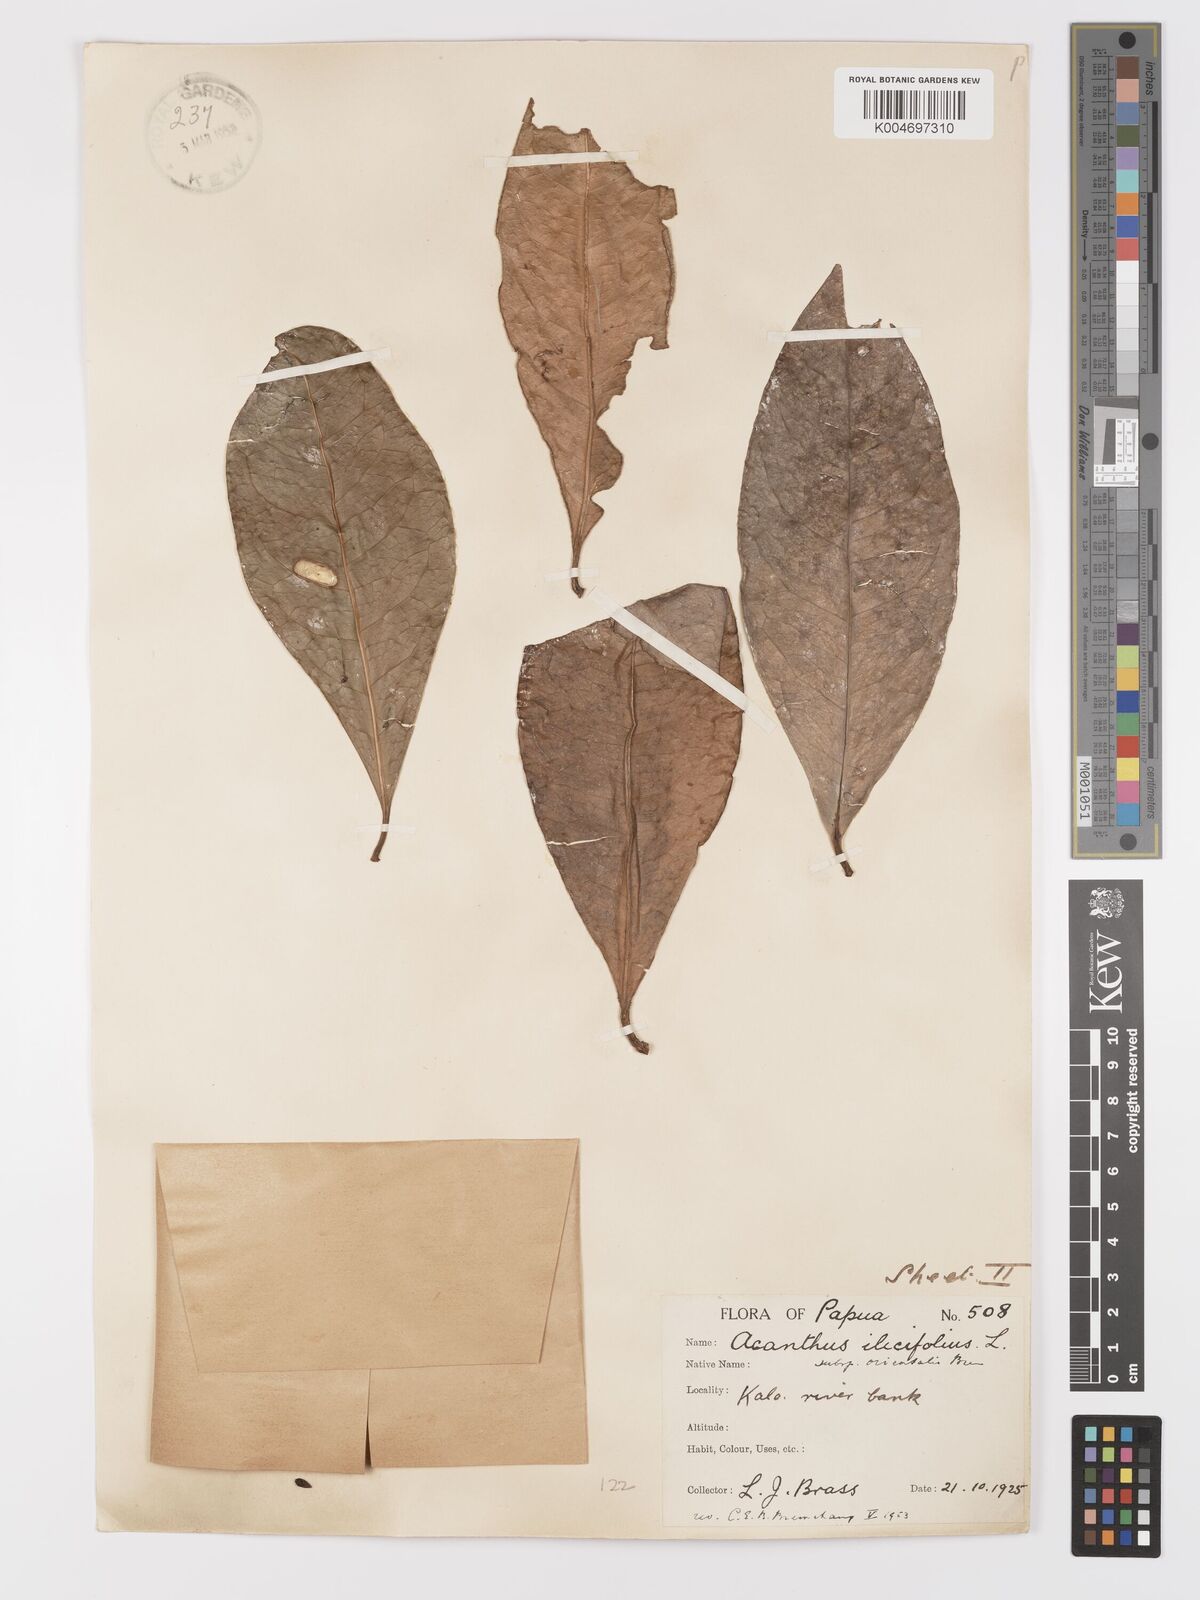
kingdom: Plantae
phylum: Tracheophyta
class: Magnoliopsida
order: Lamiales
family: Acanthaceae
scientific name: Acanthaceae
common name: Acanthaceae
